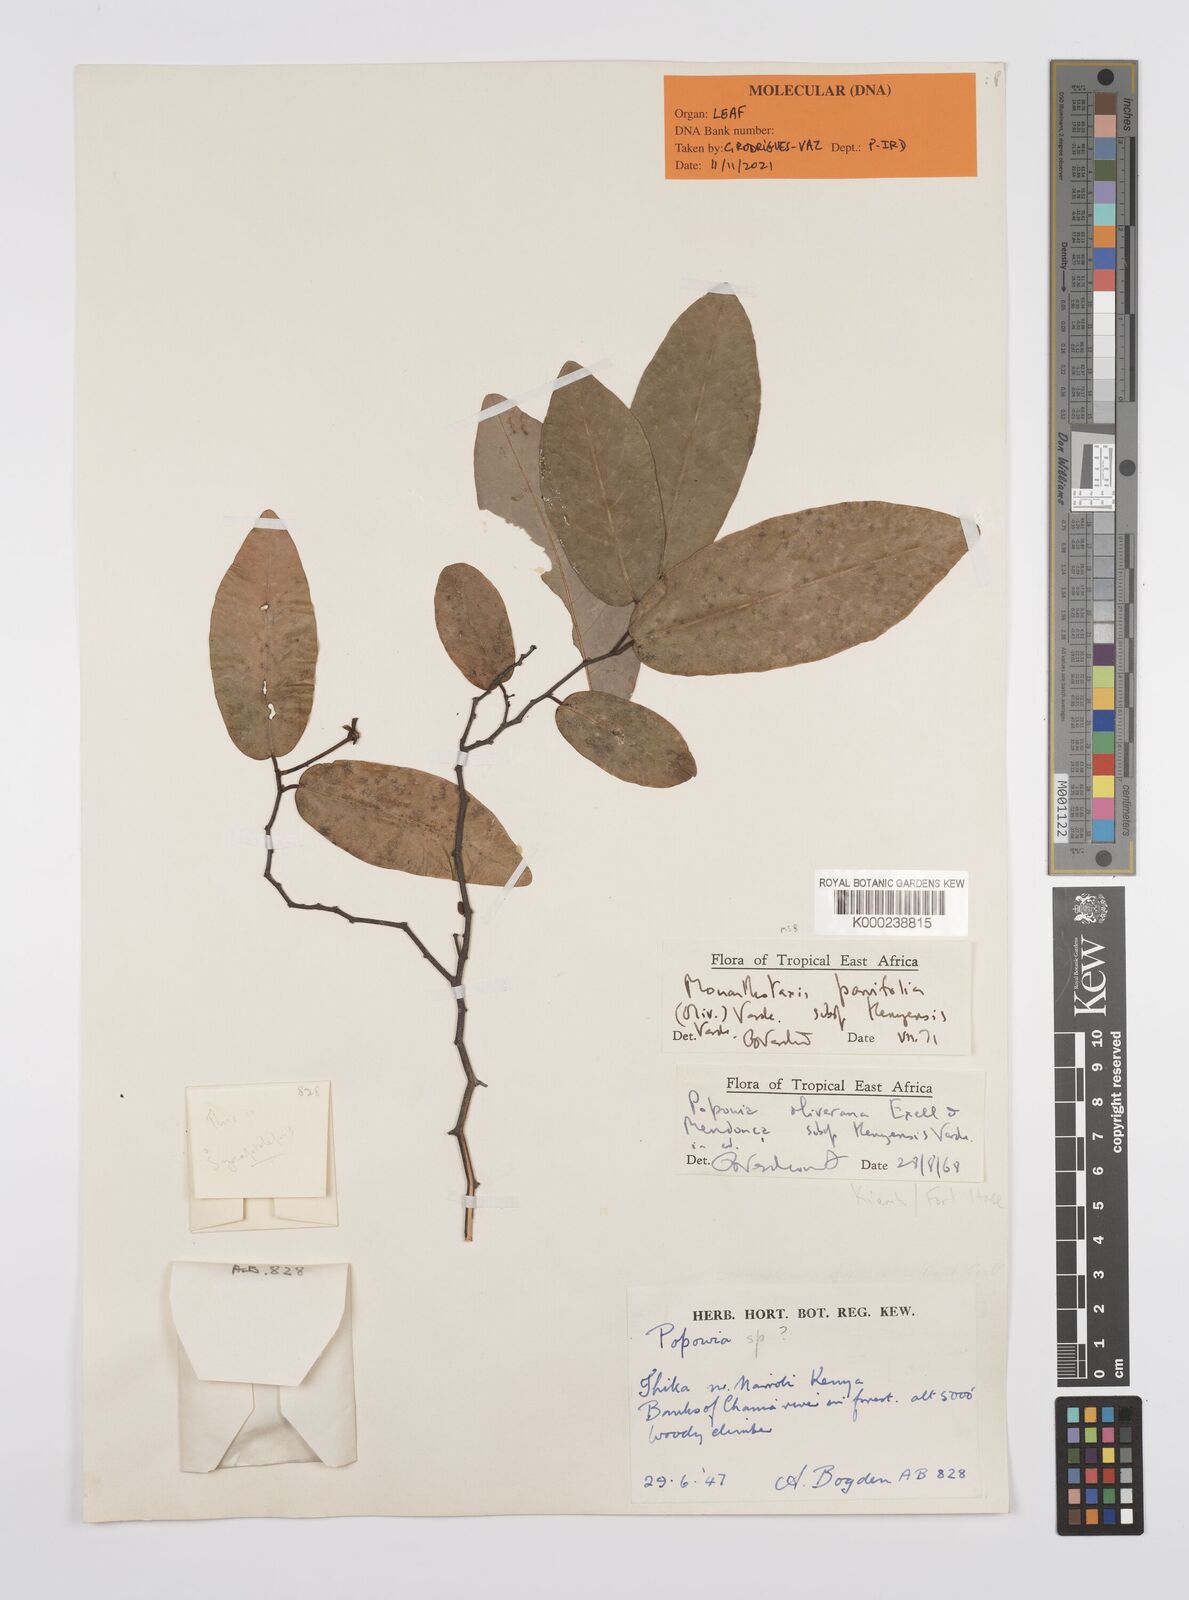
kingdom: Plantae
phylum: Tracheophyta
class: Magnoliopsida
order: Magnoliales
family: Annonaceae
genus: Monanthotaxis
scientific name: Monanthotaxis parvifolia
